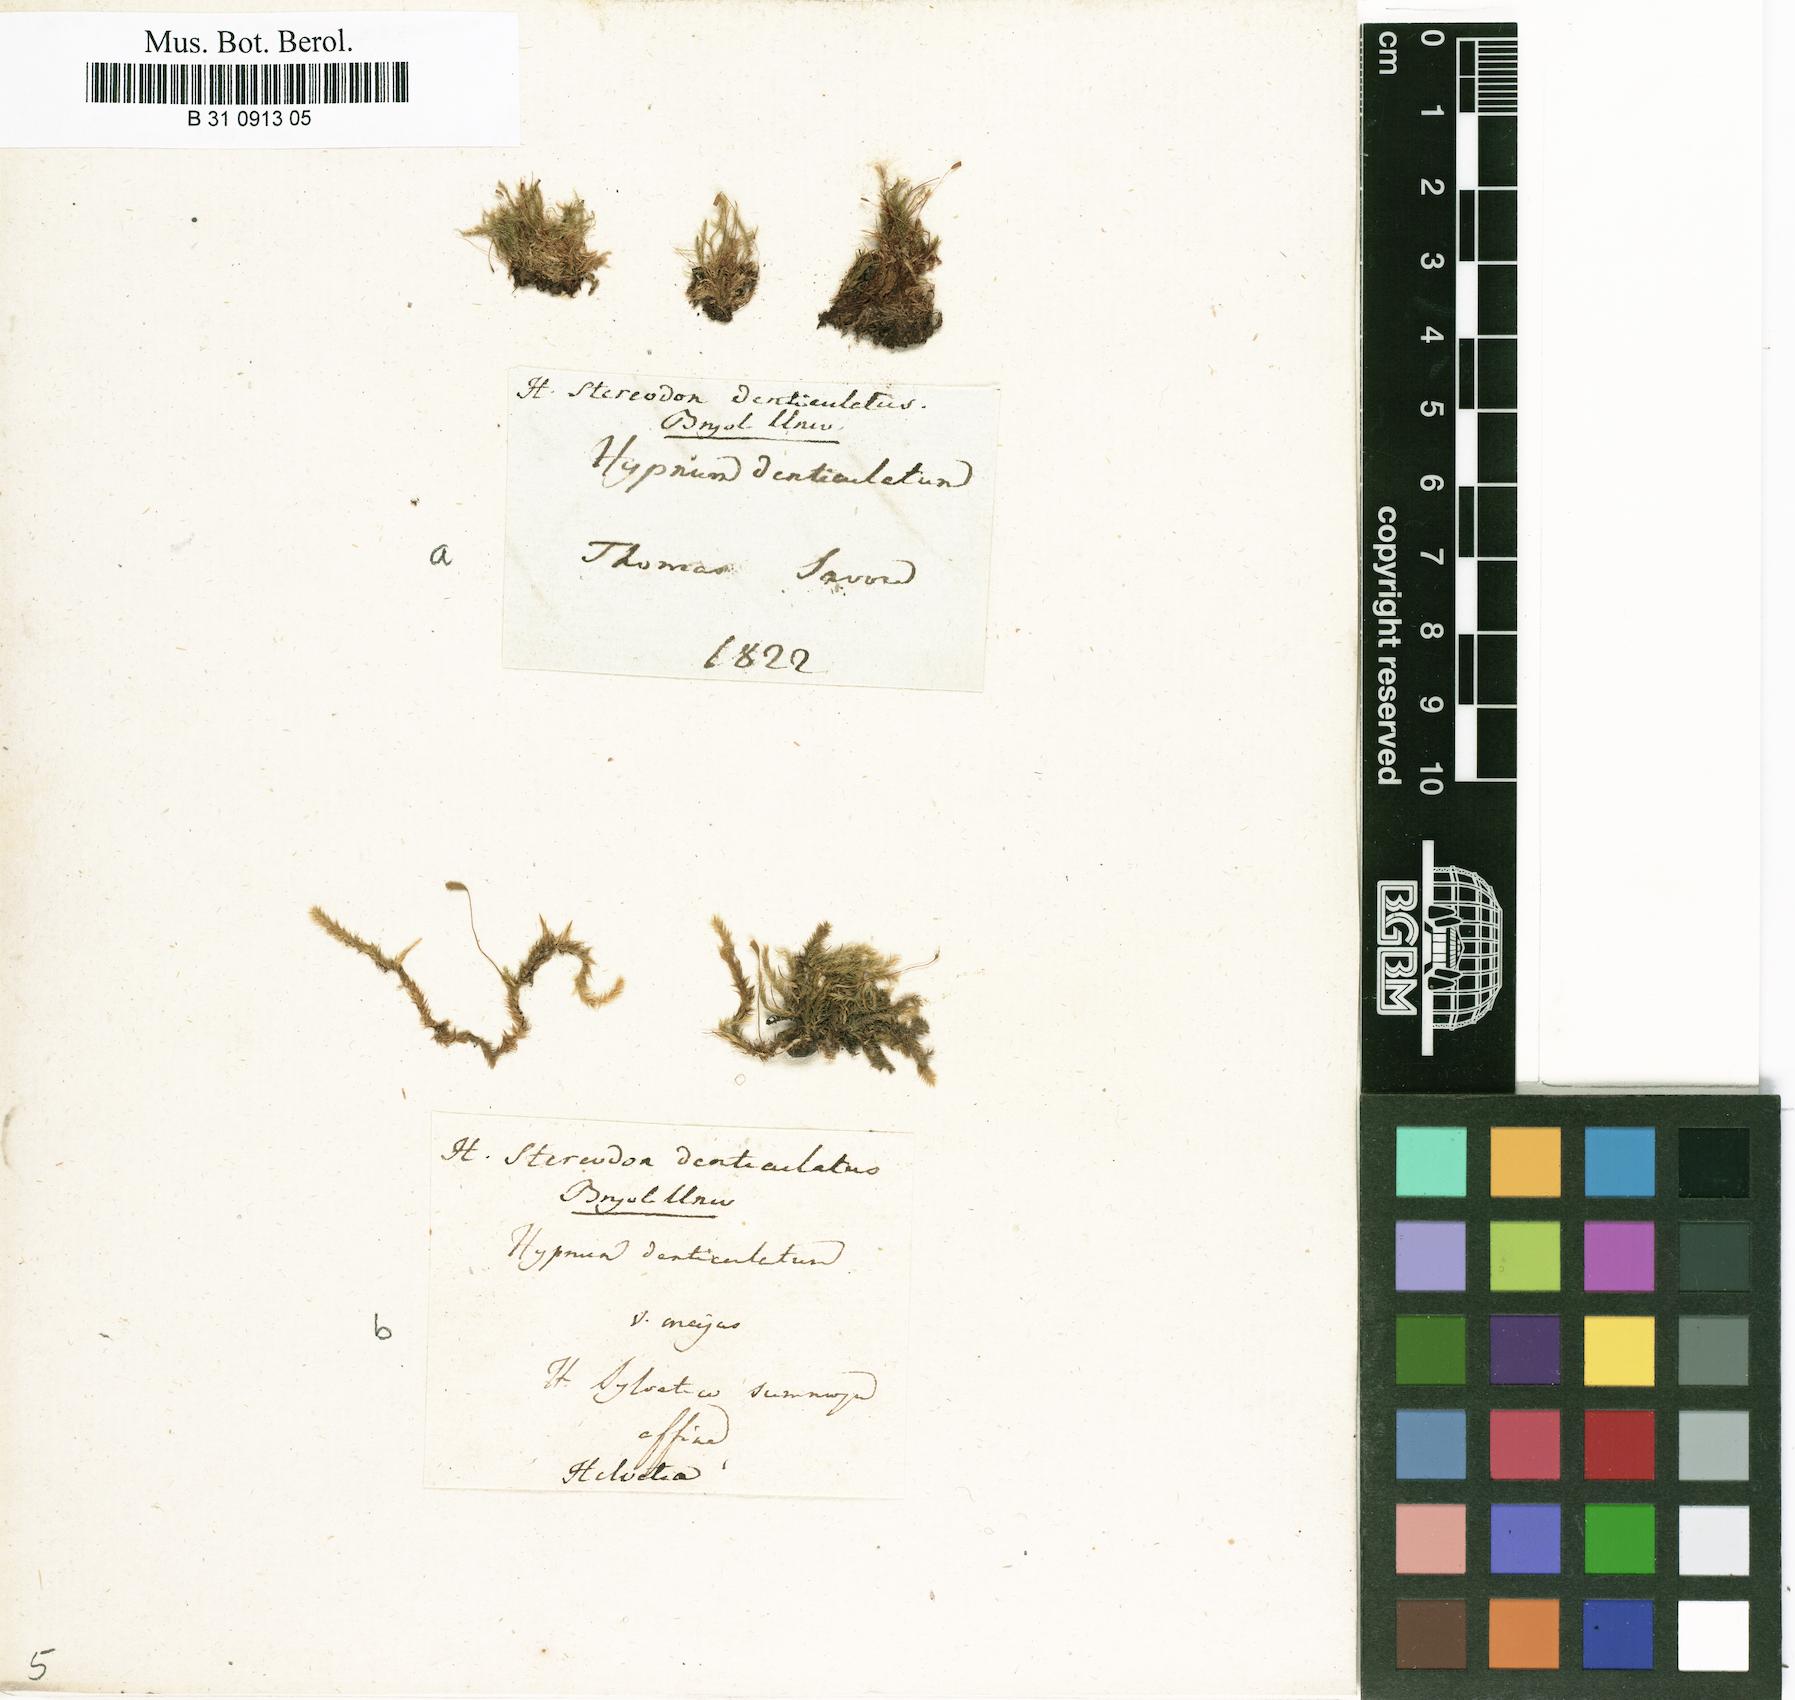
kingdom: Plantae
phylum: Bryophyta
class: Bryopsida
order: Hypnales
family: Plagiotheciaceae
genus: Plagiothecium
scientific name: Plagiothecium denticulatum
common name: Dented silk moss
